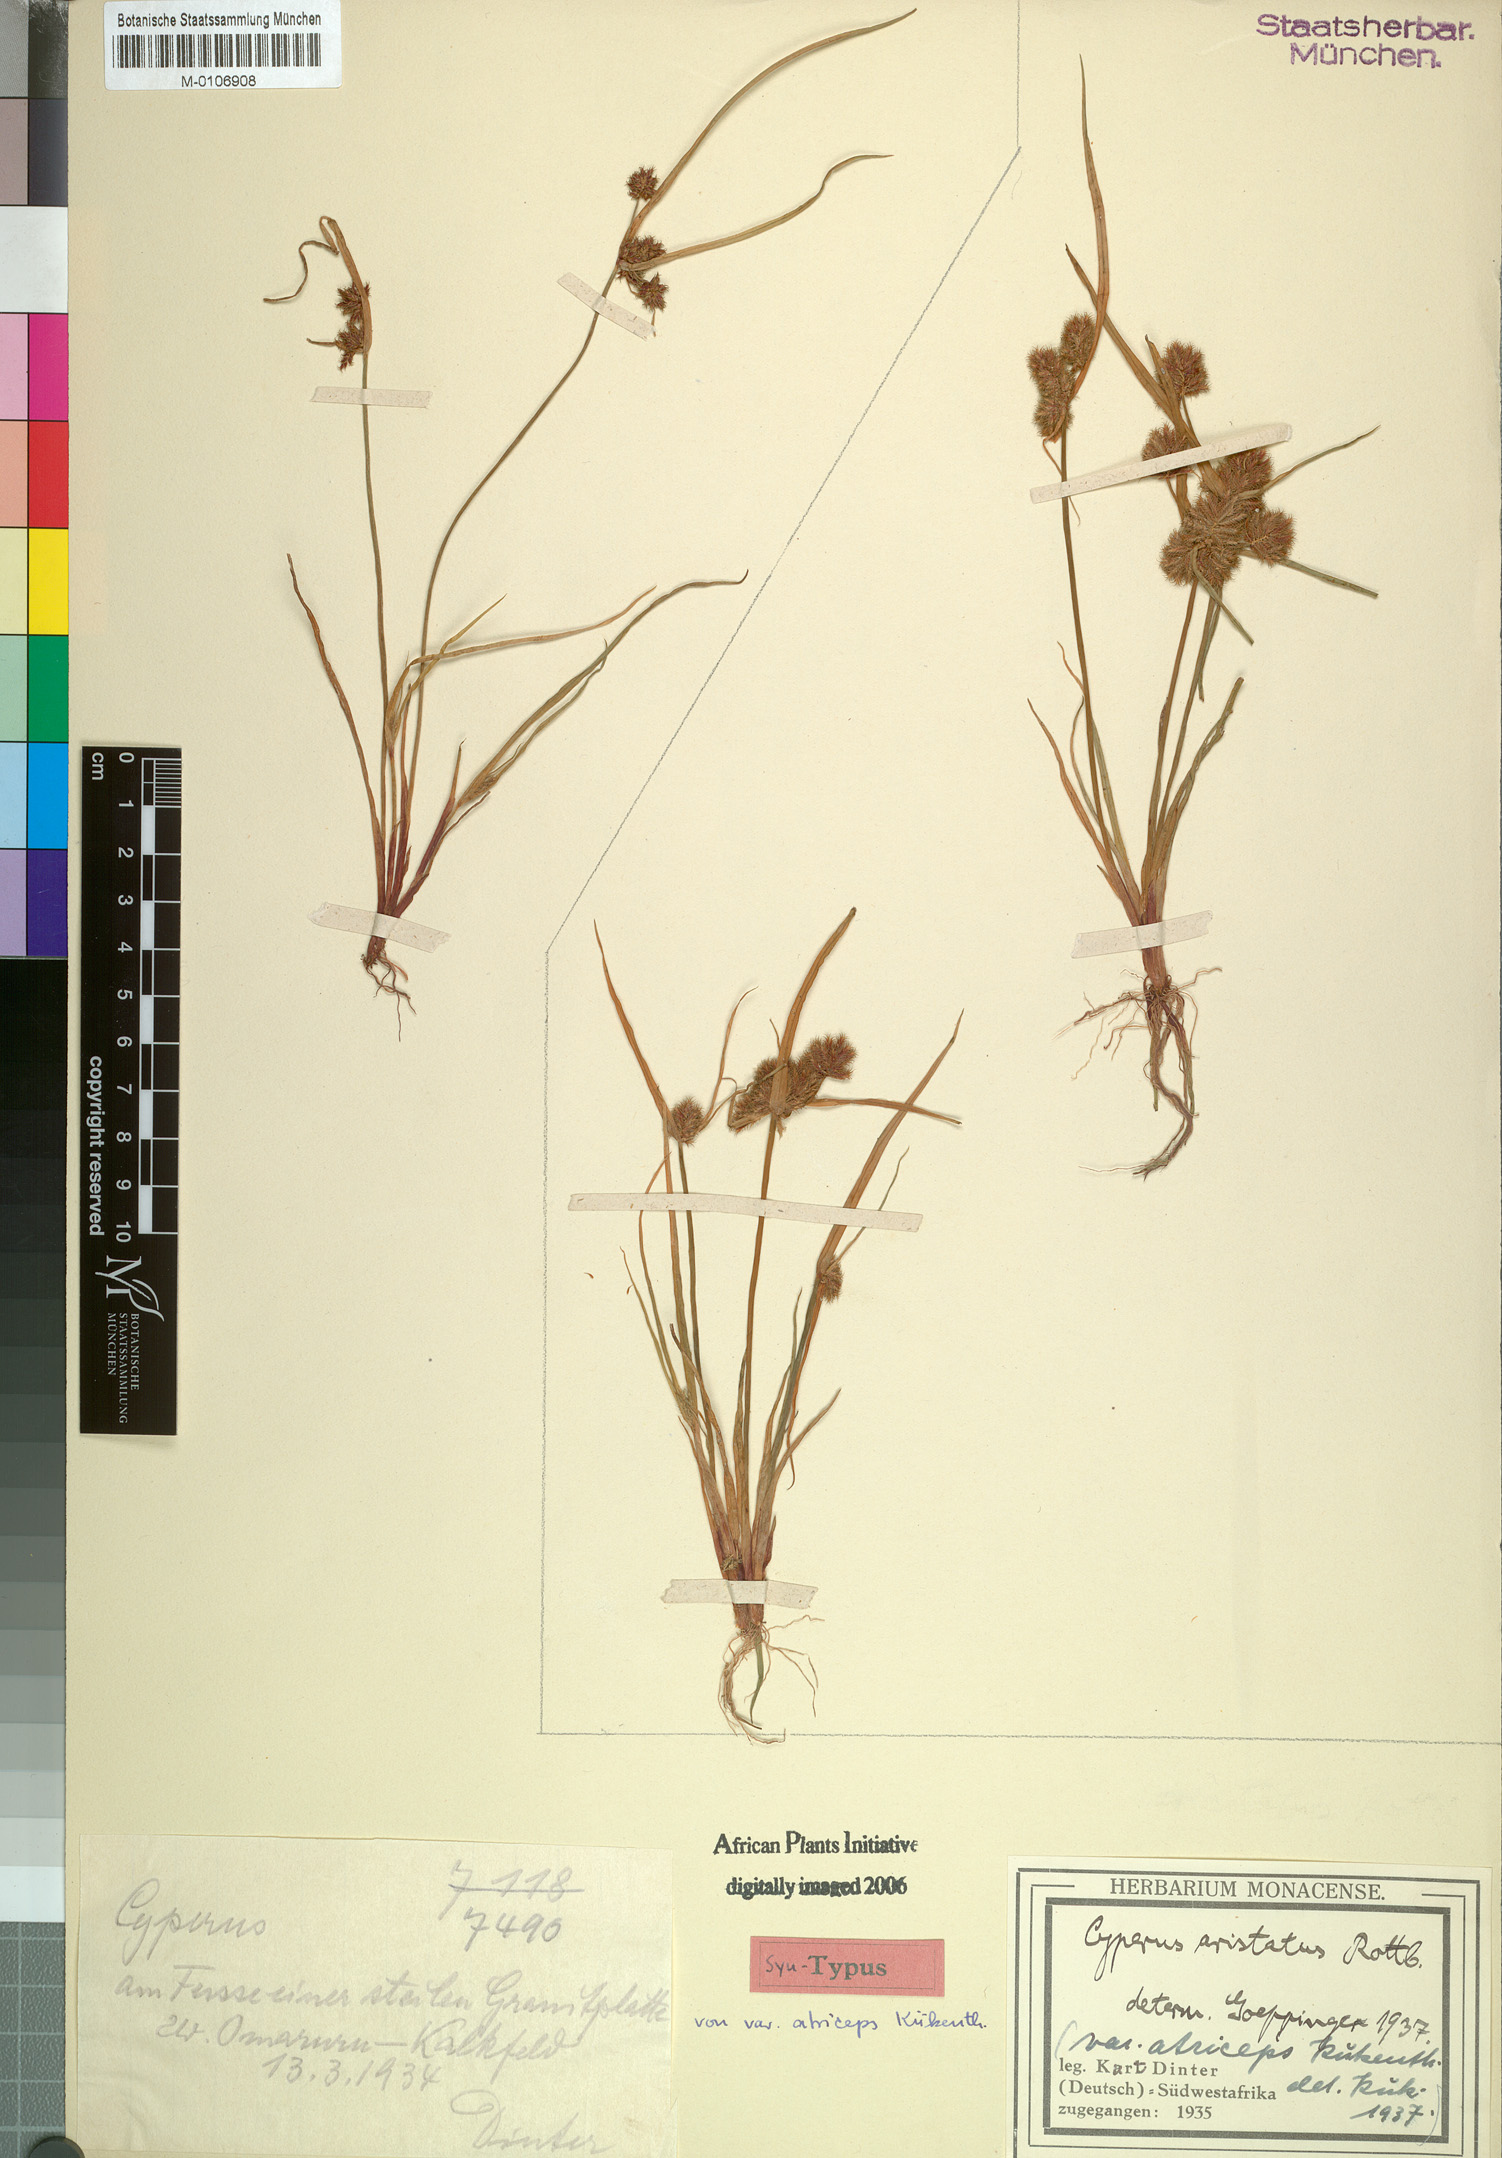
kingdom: Plantae
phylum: Tracheophyta
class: Liliopsida
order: Poales
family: Cyperaceae
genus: Cyperus
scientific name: Cyperus atriceps
